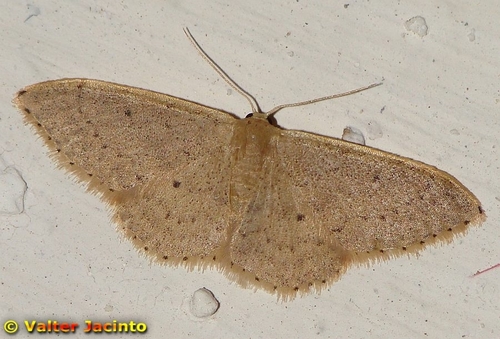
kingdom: Animalia
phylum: Arthropoda
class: Insecta
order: Lepidoptera
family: Geometridae
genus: Idaea
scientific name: Idaea eugeniata
